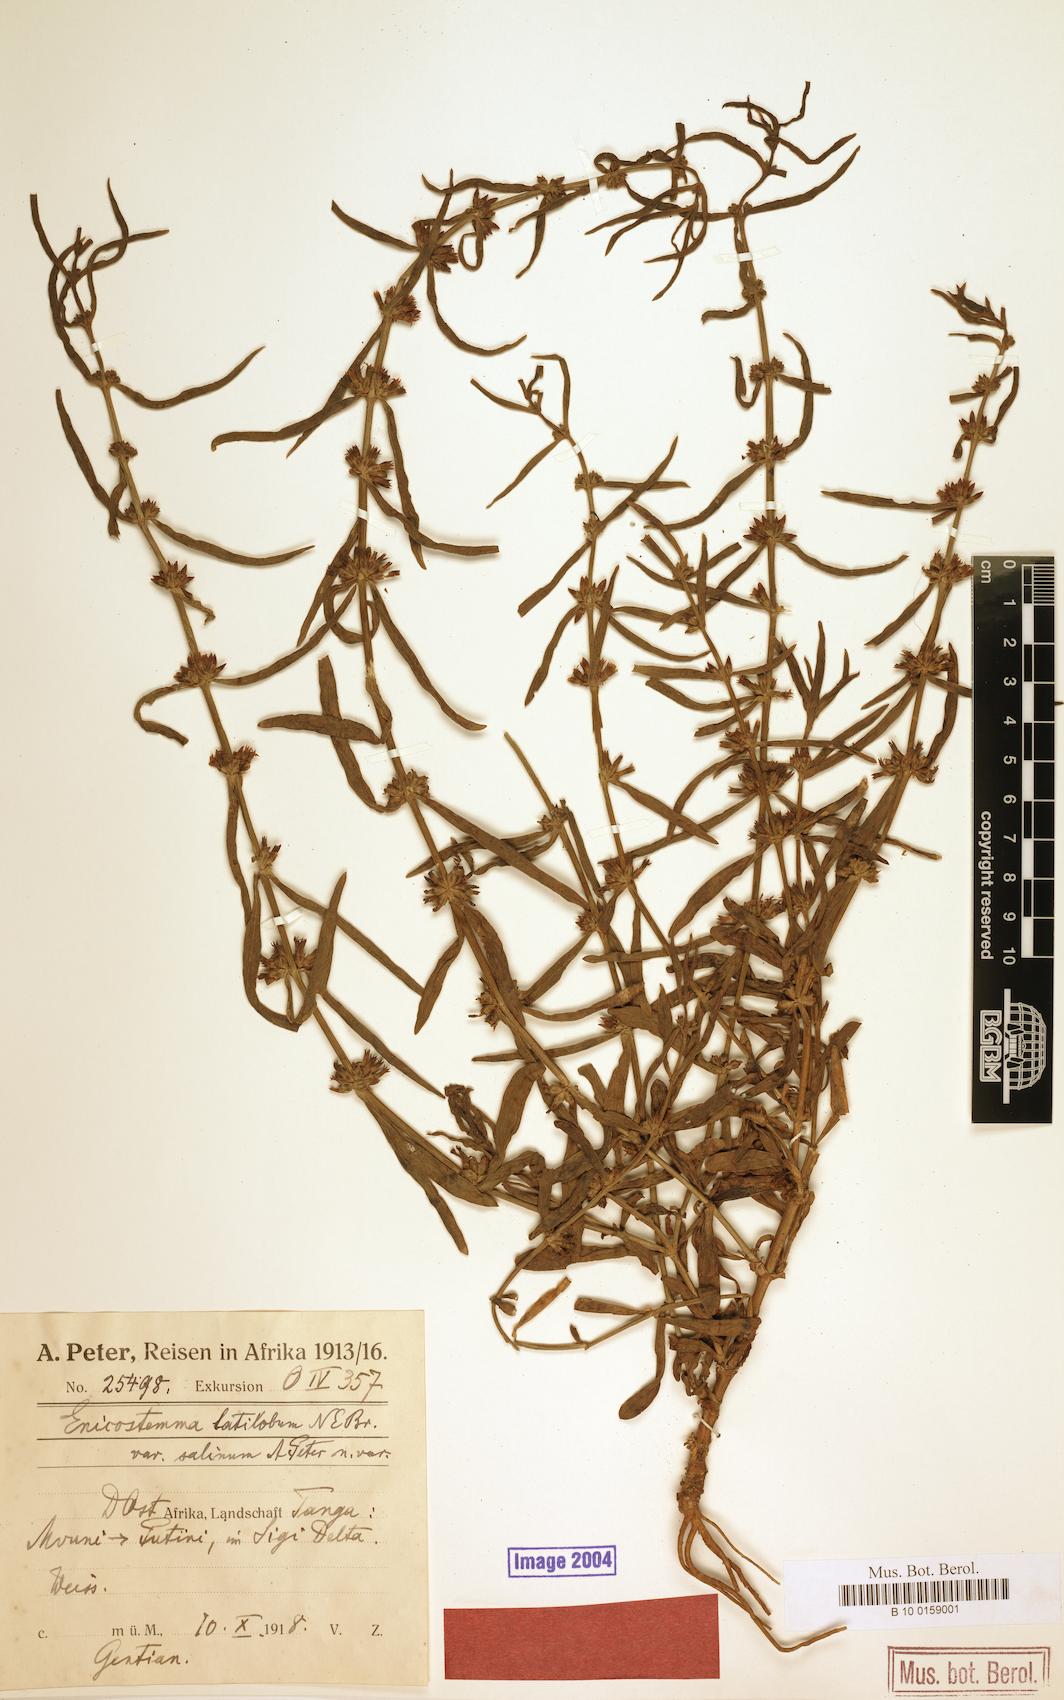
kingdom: Plantae
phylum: Tracheophyta
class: Magnoliopsida
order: Gentianales
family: Gentianaceae
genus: Enicostema
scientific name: Enicostema axillare
